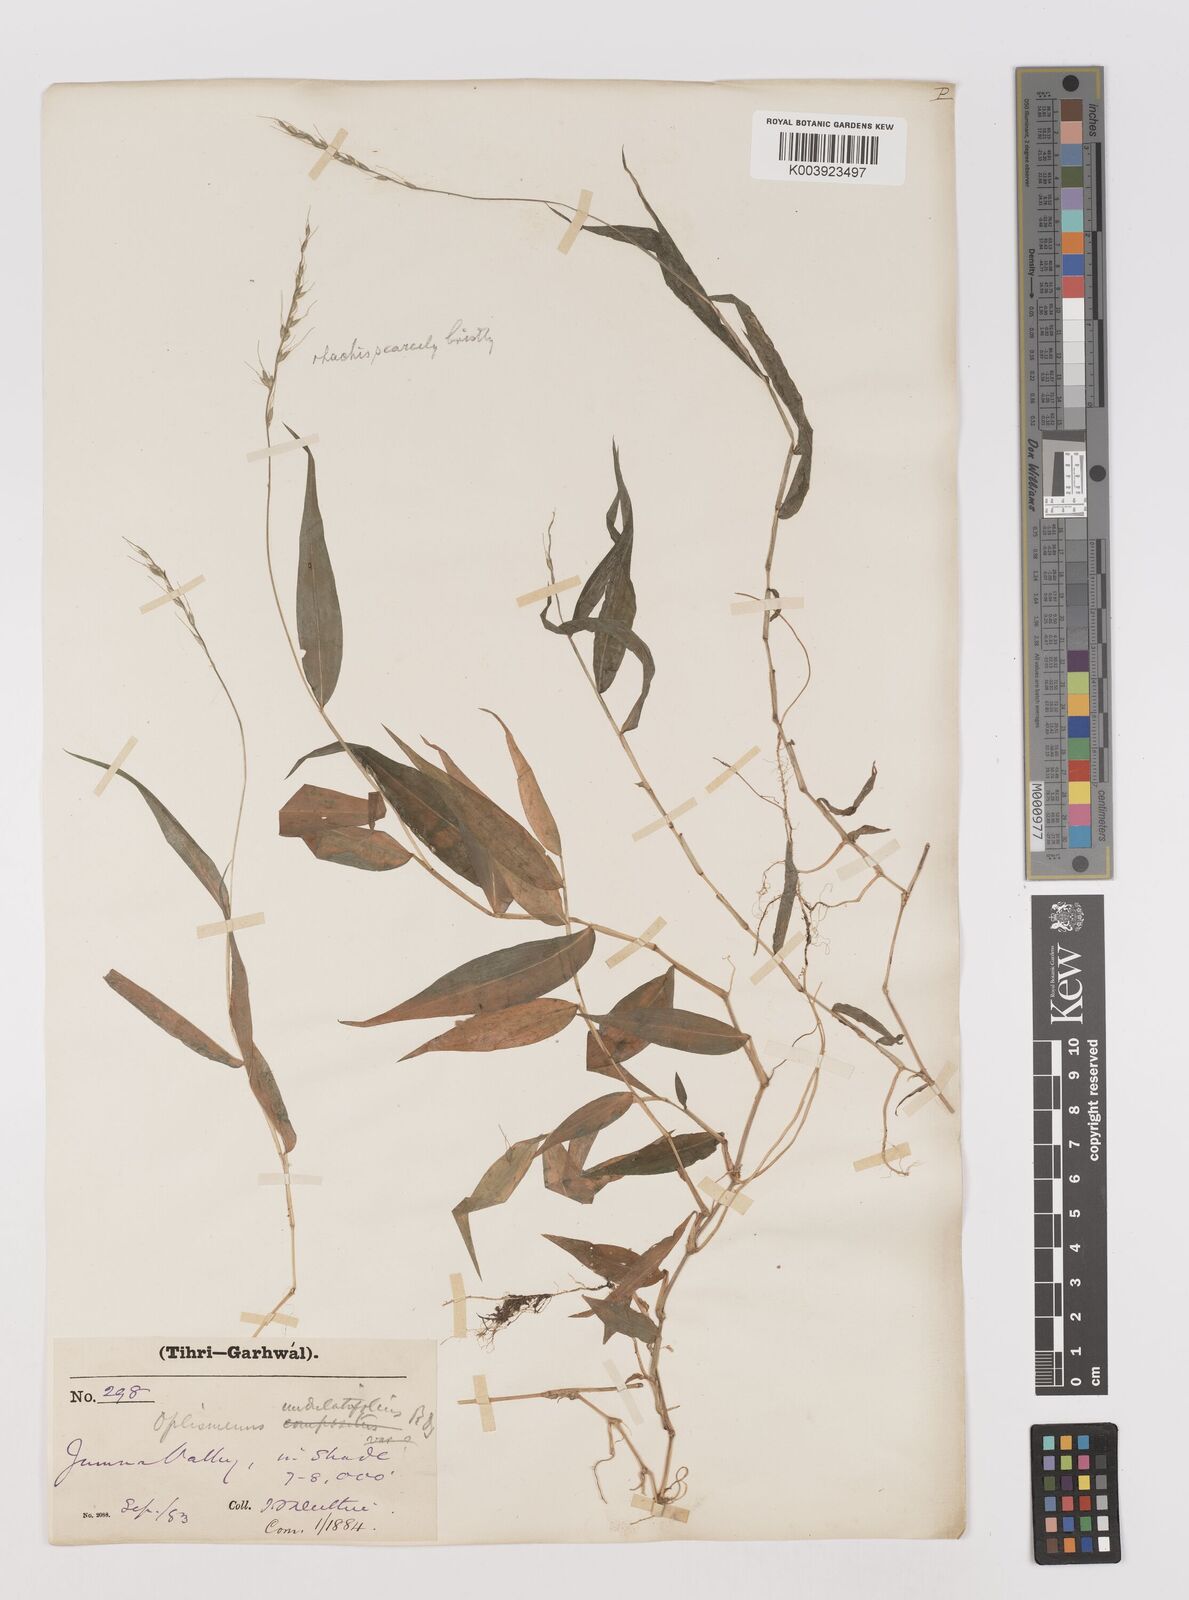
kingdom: Plantae
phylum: Tracheophyta
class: Liliopsida
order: Poales
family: Poaceae
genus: Oplismenus
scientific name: Oplismenus undulatifolius
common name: Wavyleaf basketgrass
